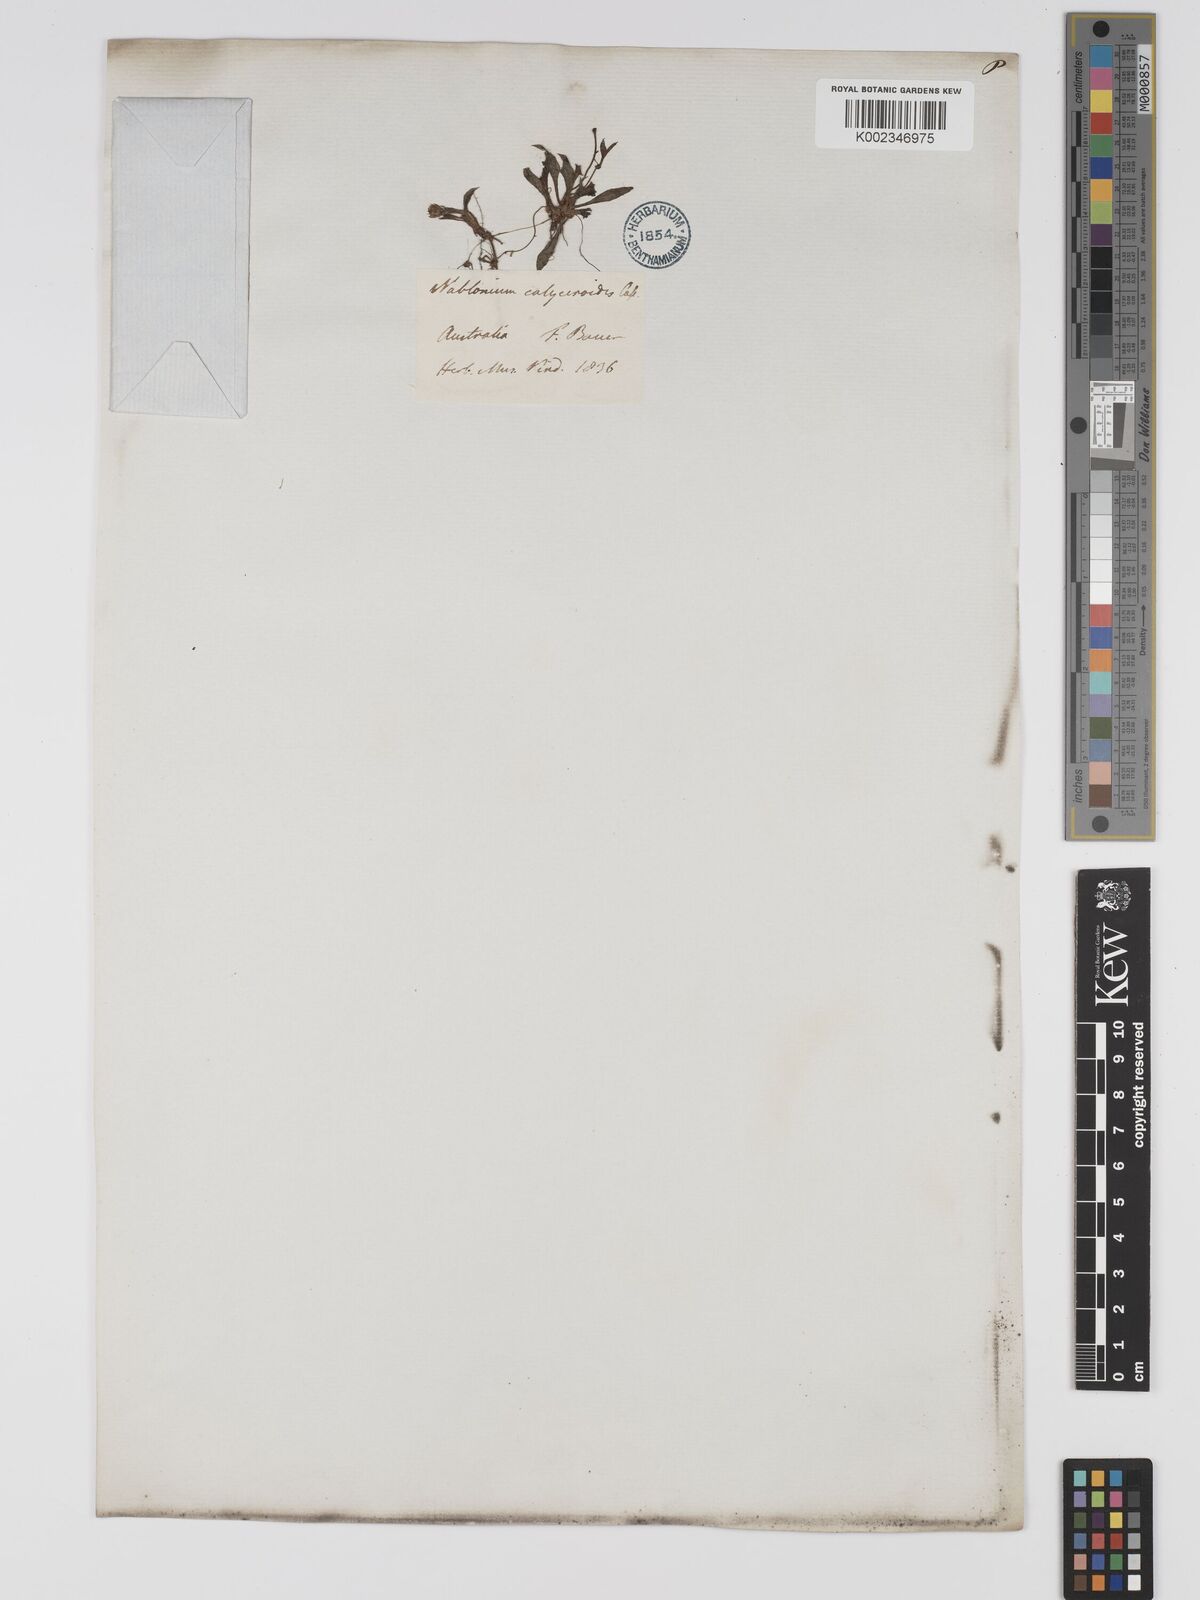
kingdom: Plantae
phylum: Tracheophyta
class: Magnoliopsida
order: Asterales
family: Asteraceae
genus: Ammobium
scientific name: Ammobium calyceroides
